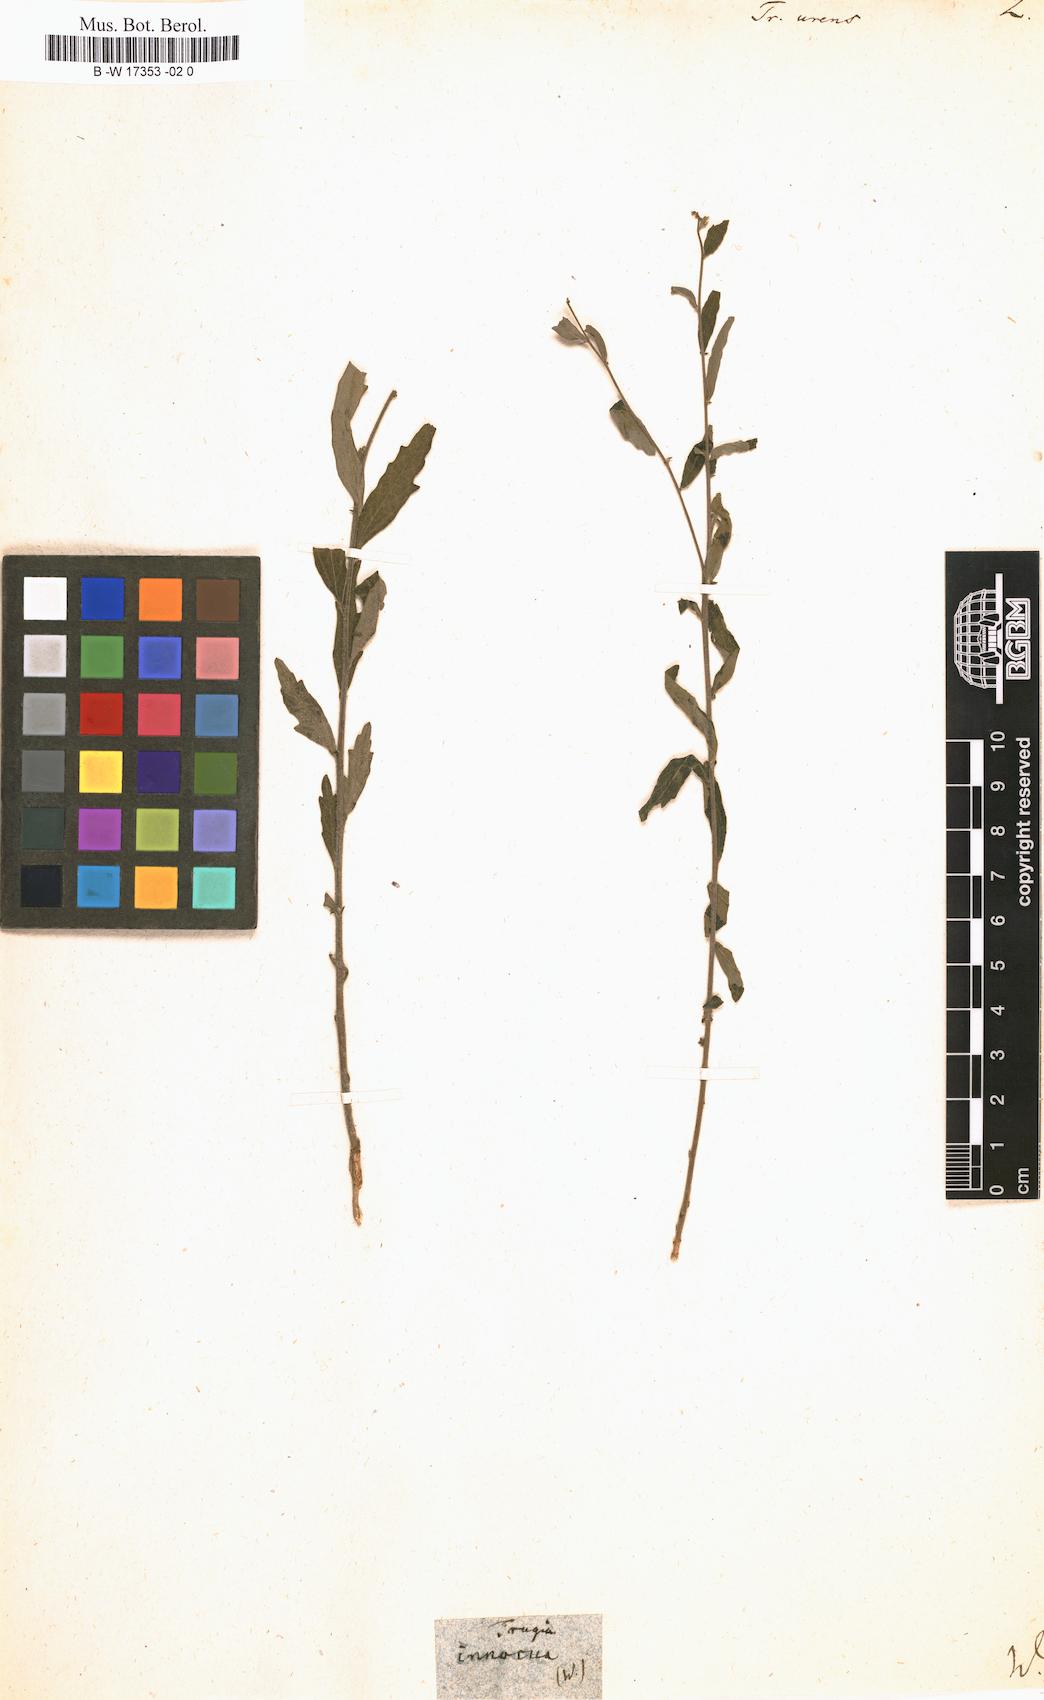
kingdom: Plantae
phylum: Tracheophyta
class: Magnoliopsida
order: Malpighiales
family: Euphorbiaceae
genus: Tragia
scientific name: Tragia urens
